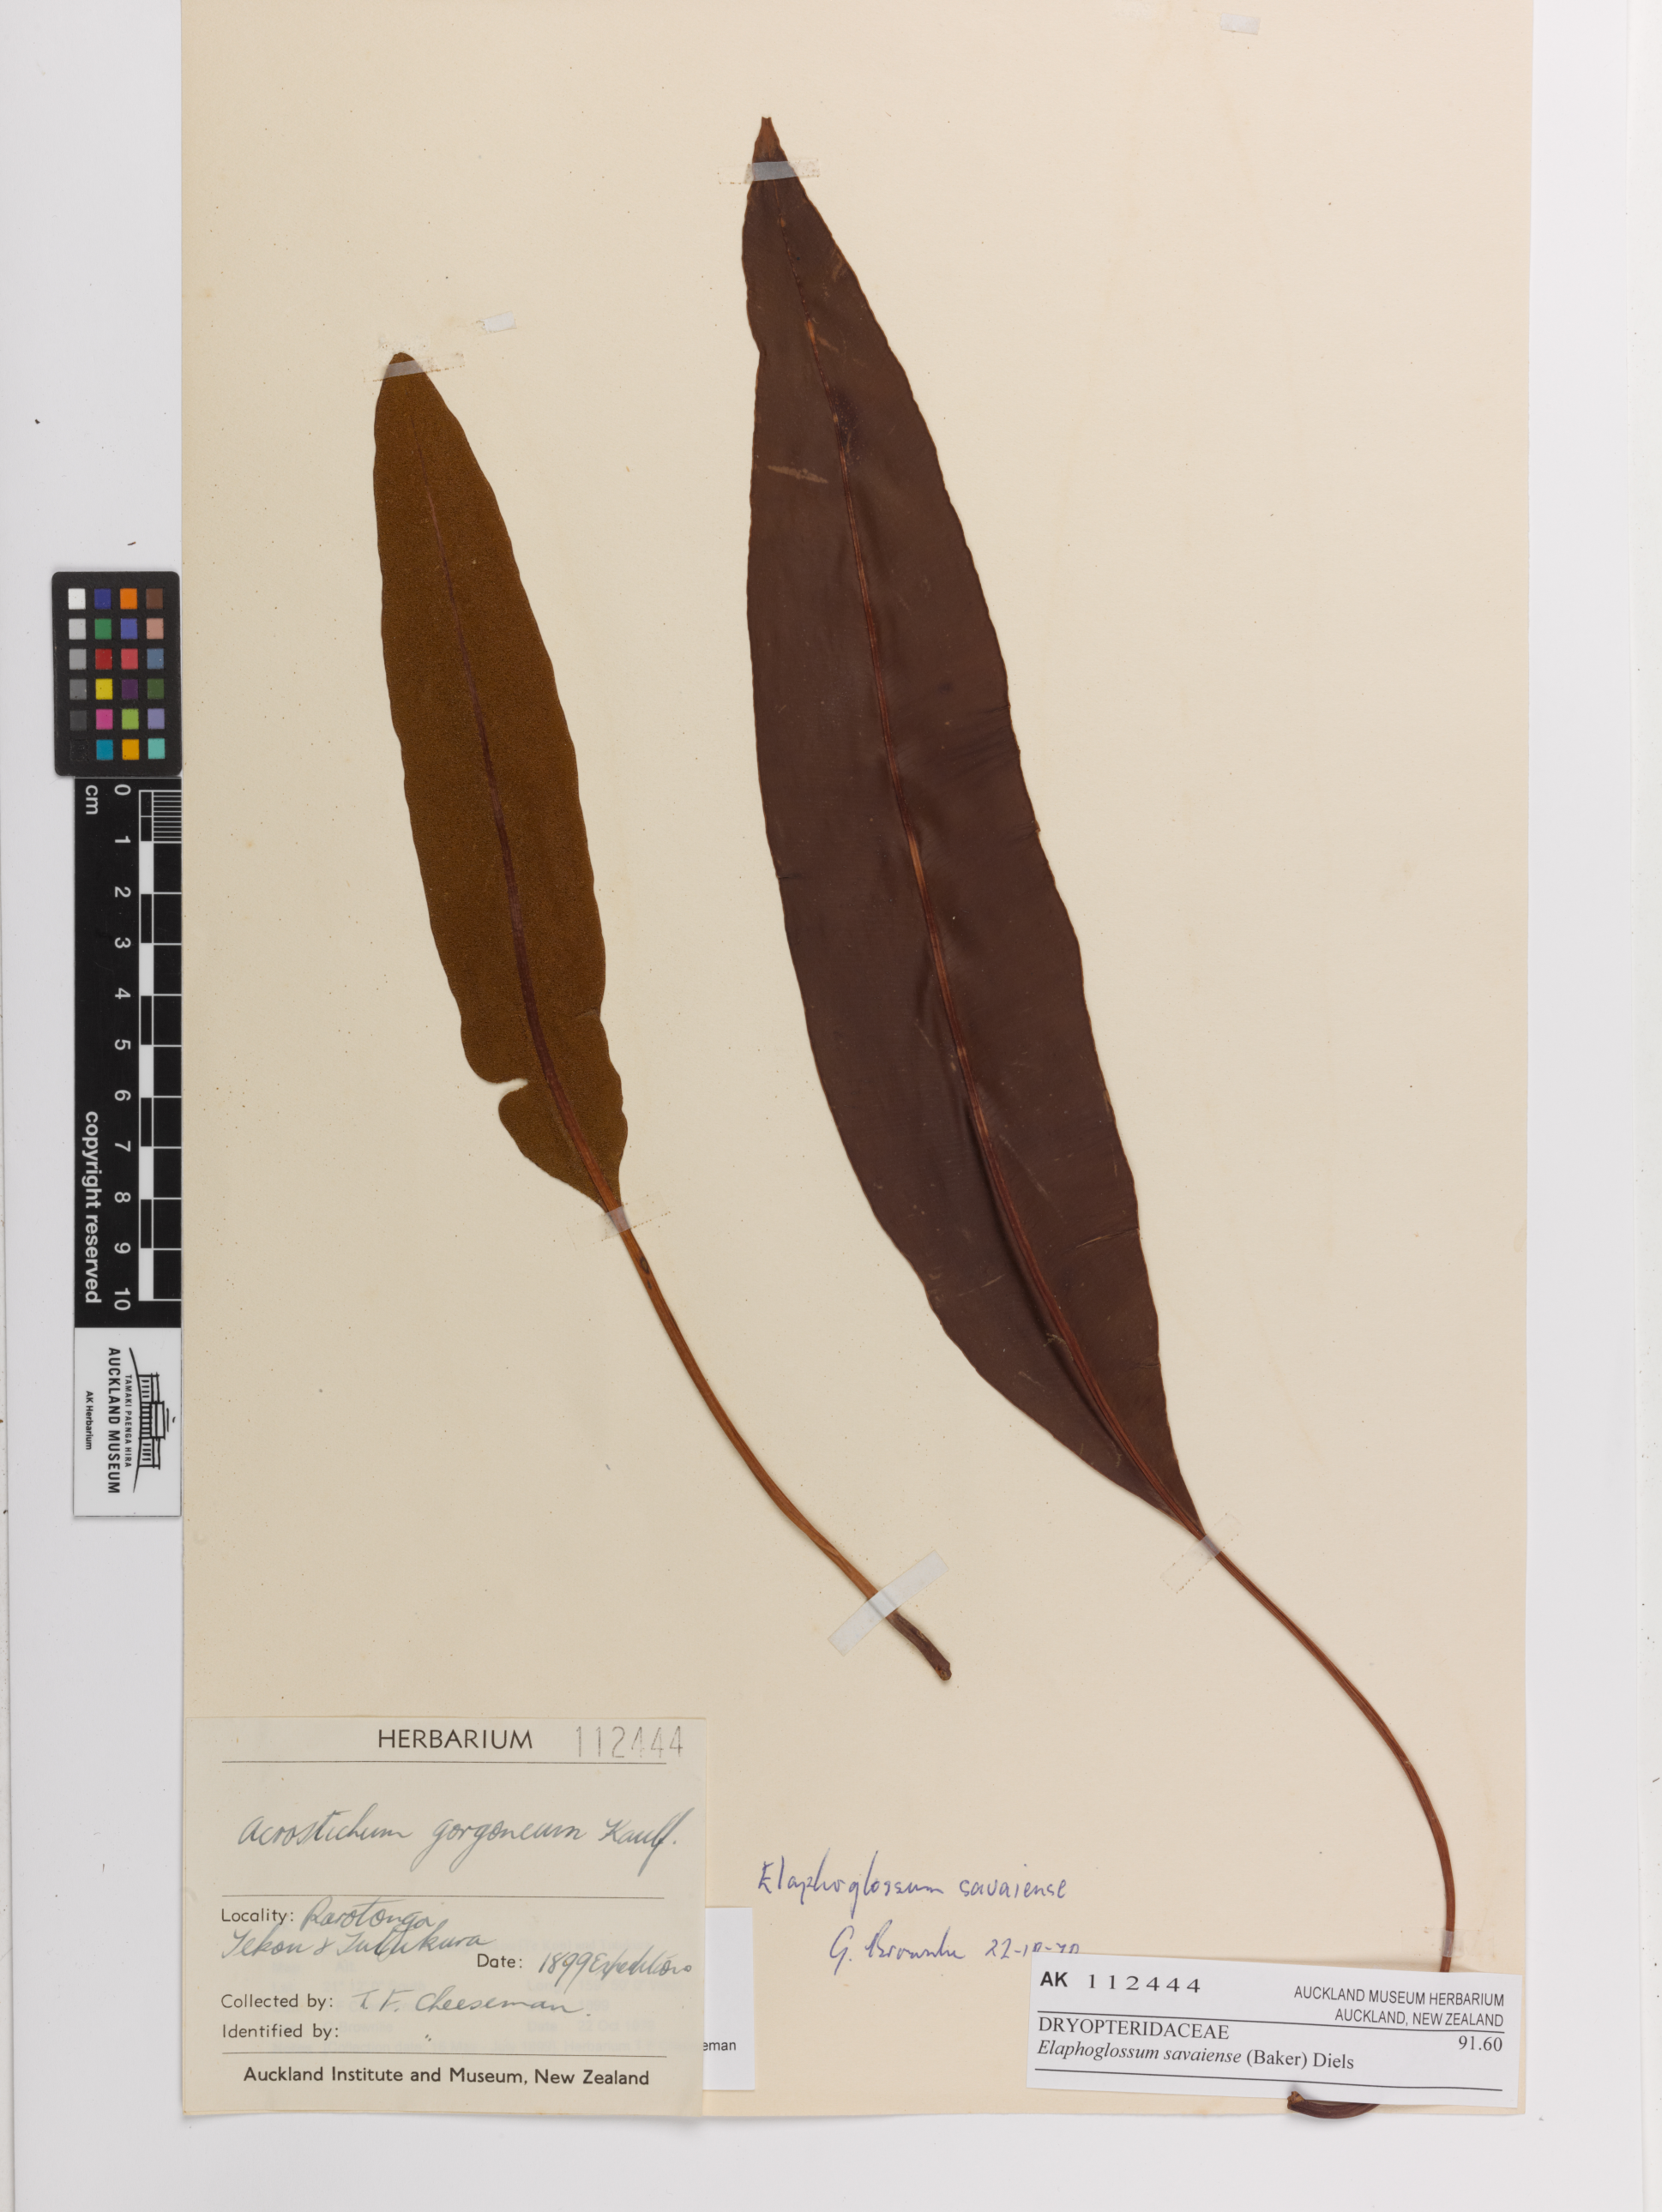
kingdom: Plantae
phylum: Tracheophyta
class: Polypodiopsida
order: Polypodiales
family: Dryopteridaceae
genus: Elaphoglossum
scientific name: Elaphoglossum savaiense
